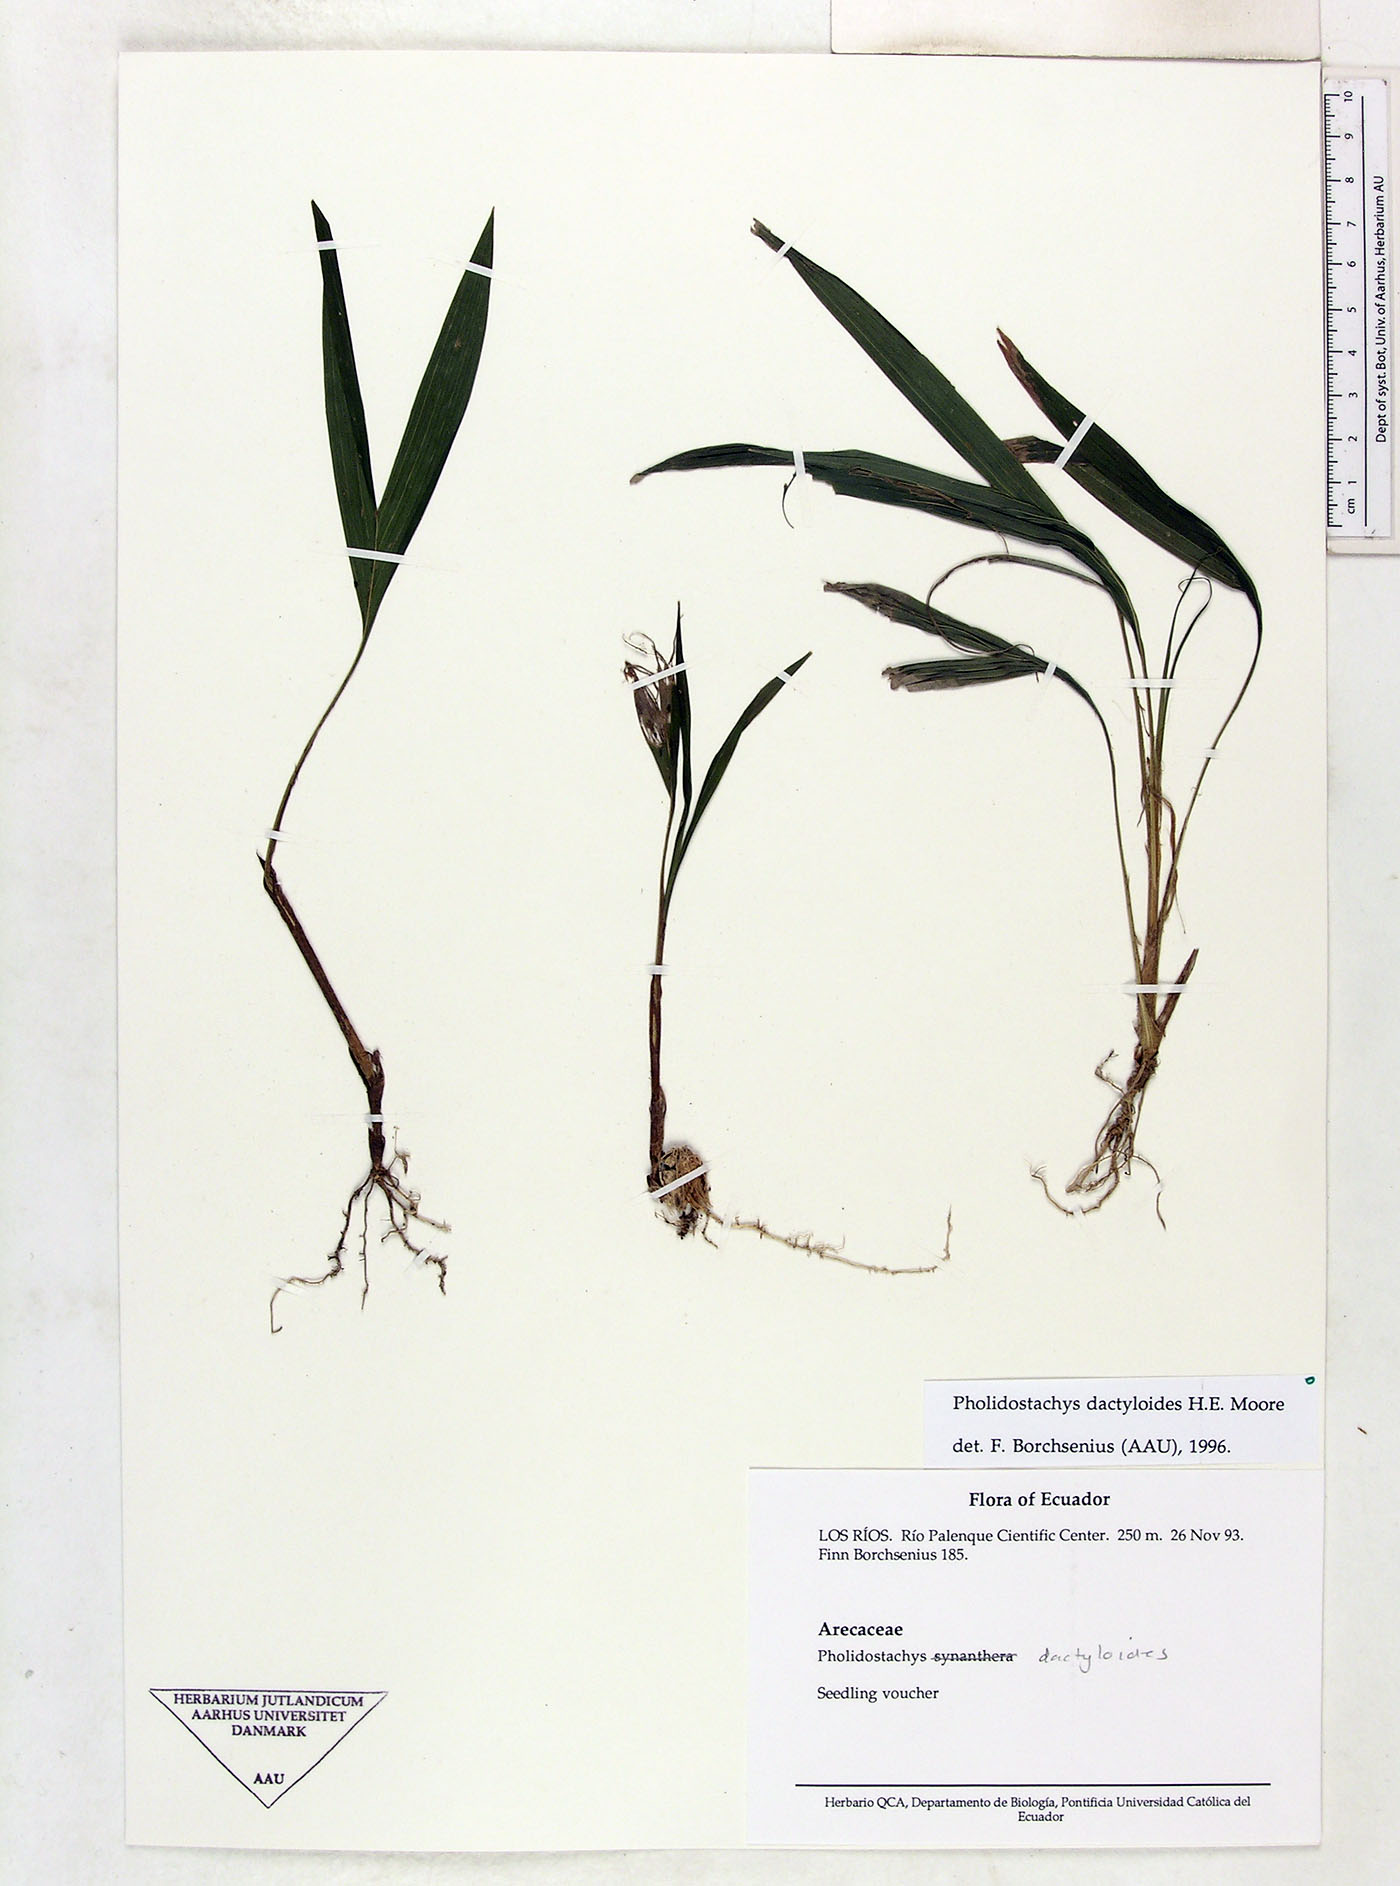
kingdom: Plantae
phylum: Tracheophyta
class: Liliopsida
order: Arecales
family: Arecaceae
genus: Pholidostachys
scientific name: Pholidostachys dactyloides
